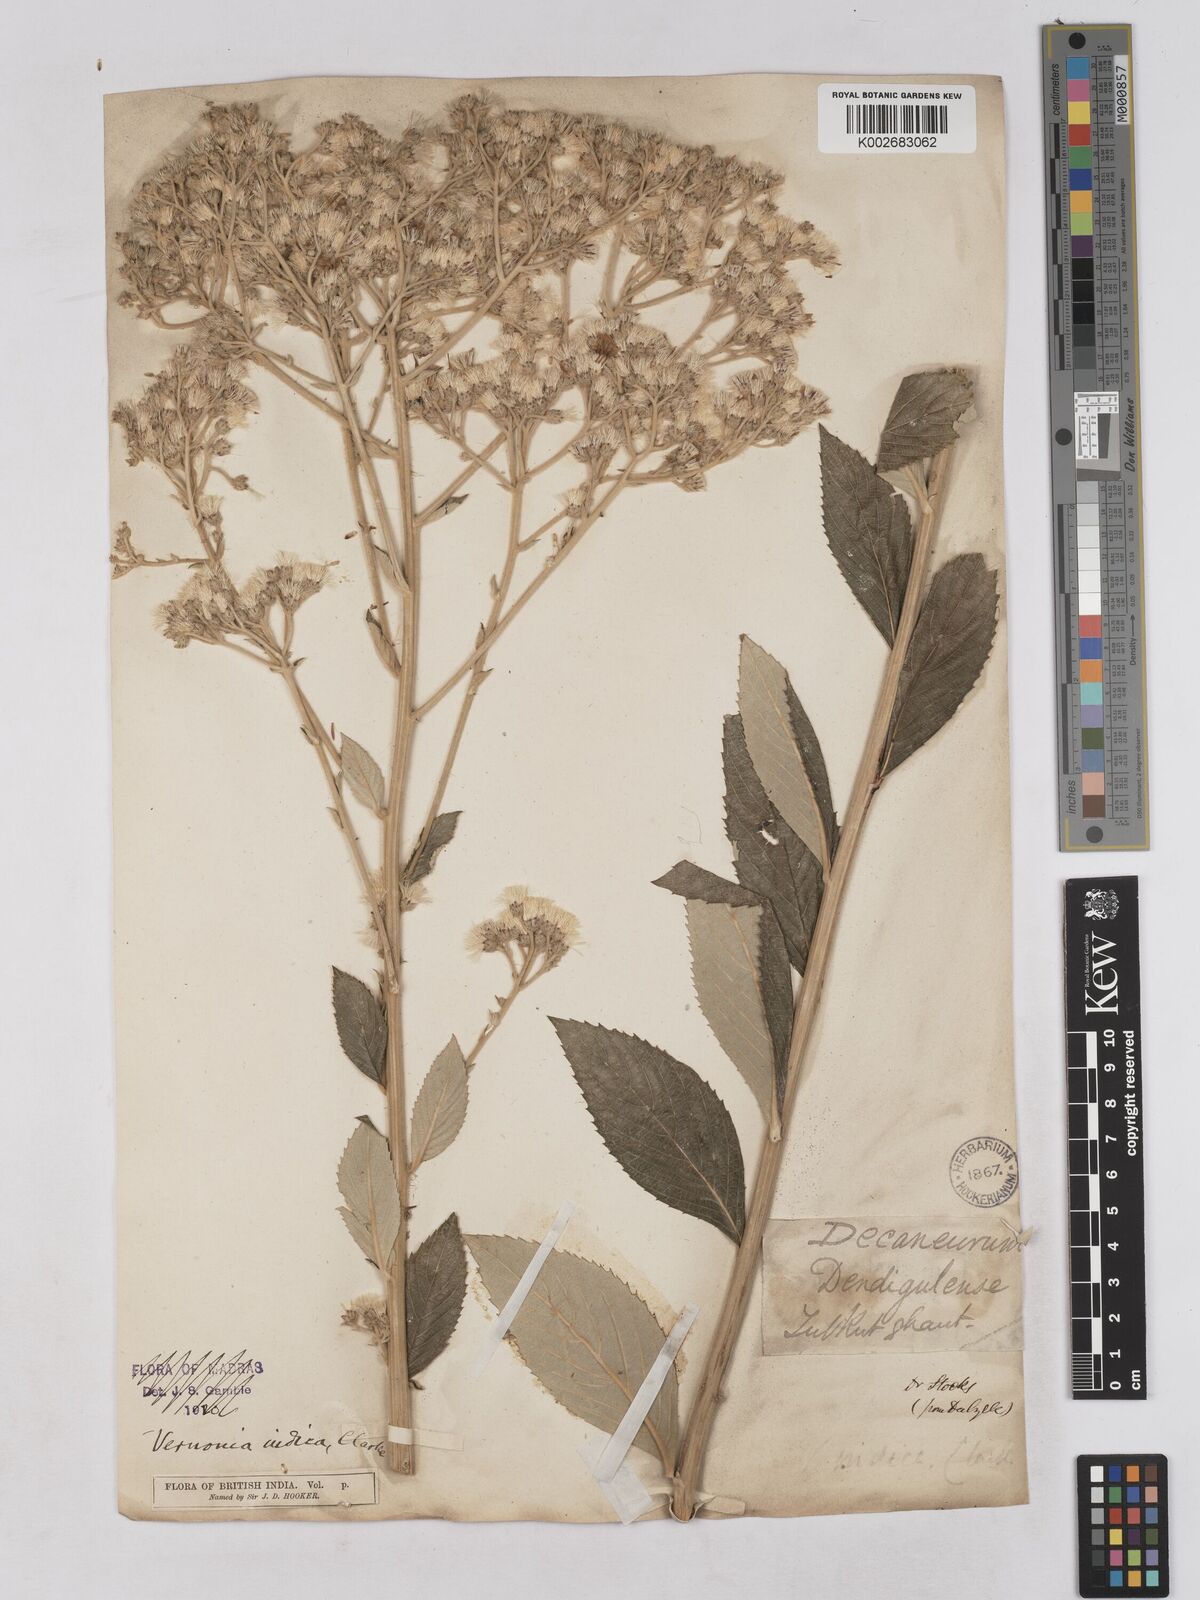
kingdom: Plantae
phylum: Tracheophyta
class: Magnoliopsida
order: Asterales
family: Asteraceae
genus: Acilepis
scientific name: Acilepis dendigulensis
